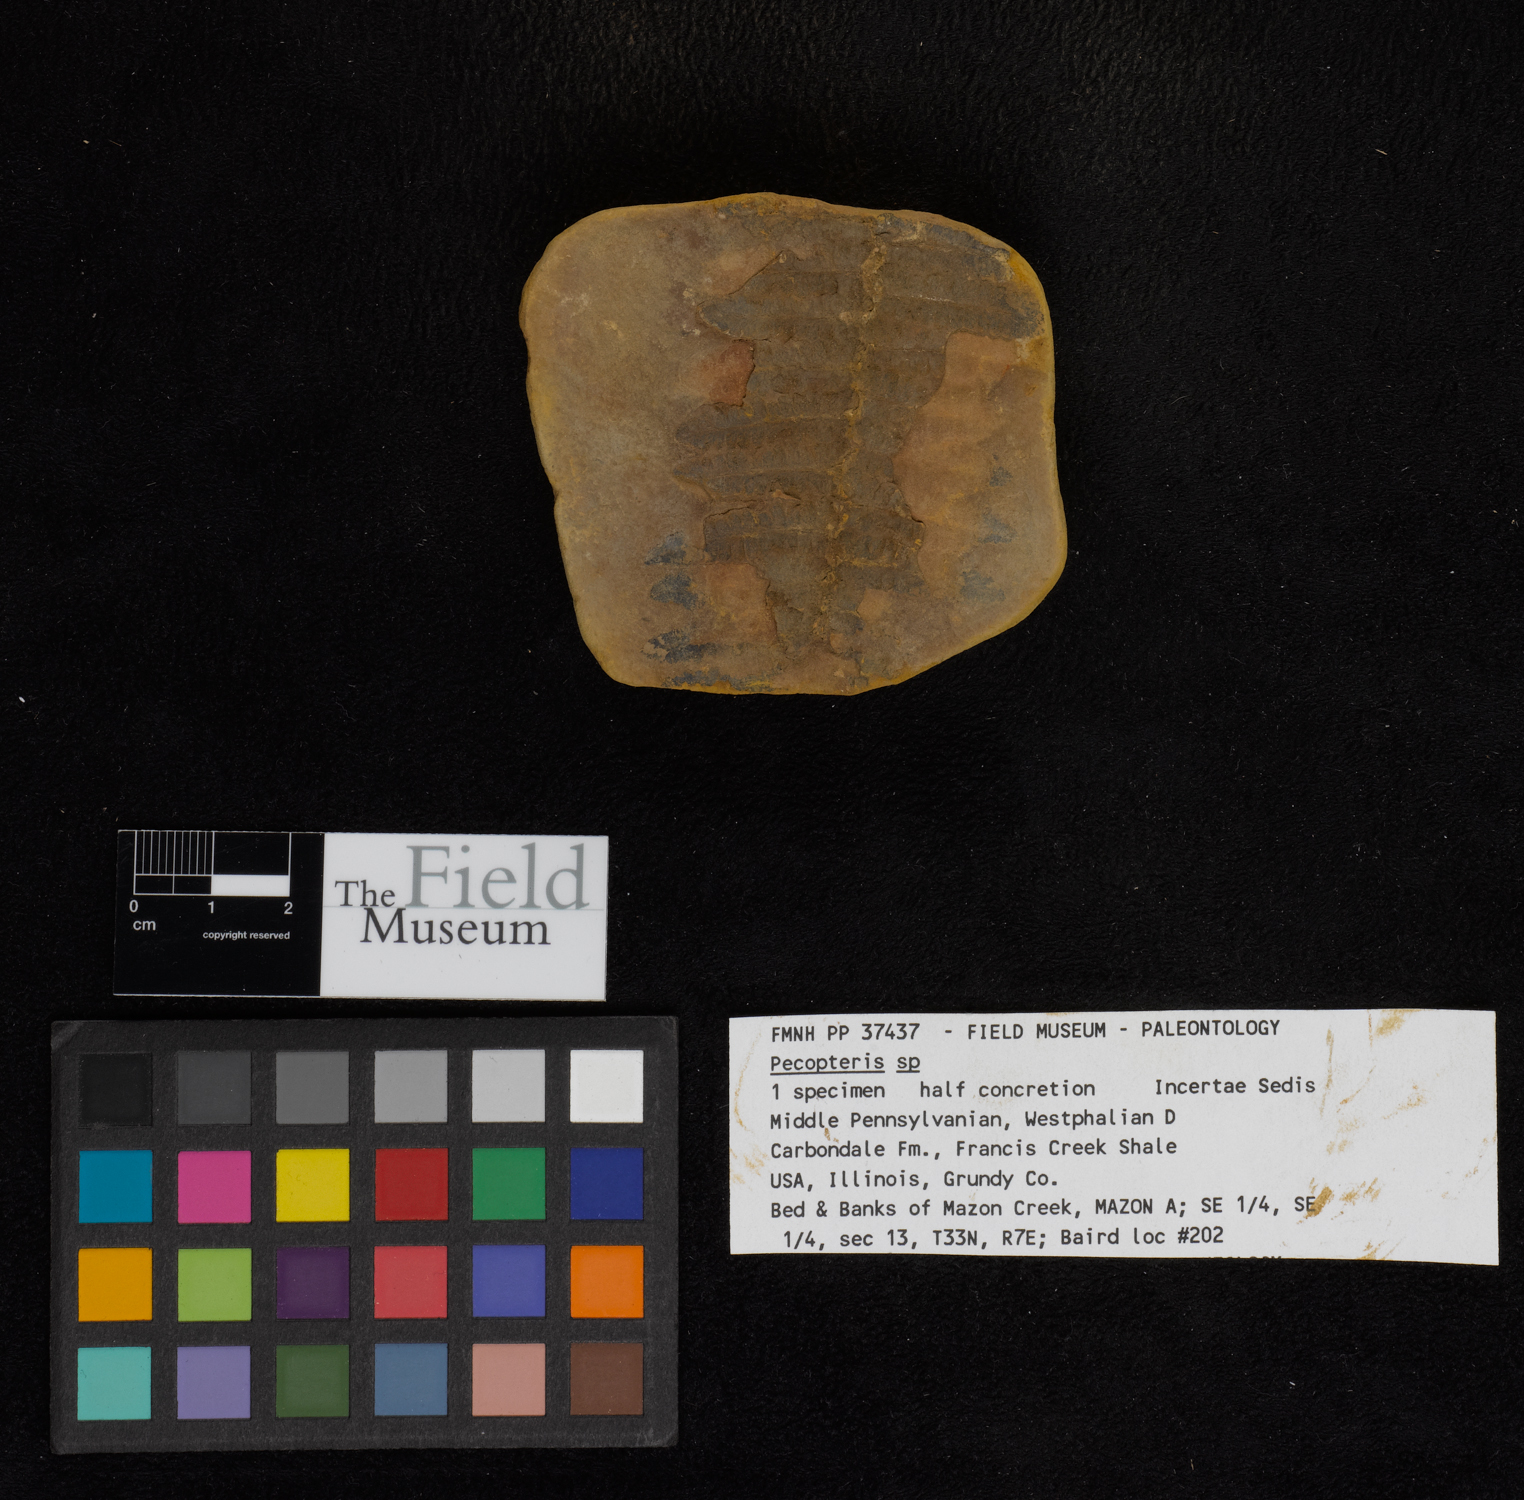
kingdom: Plantae
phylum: Tracheophyta
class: Polypodiopsida
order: Marattiales
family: Asterothecaceae
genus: Pecopteris
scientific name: Pecopteris
